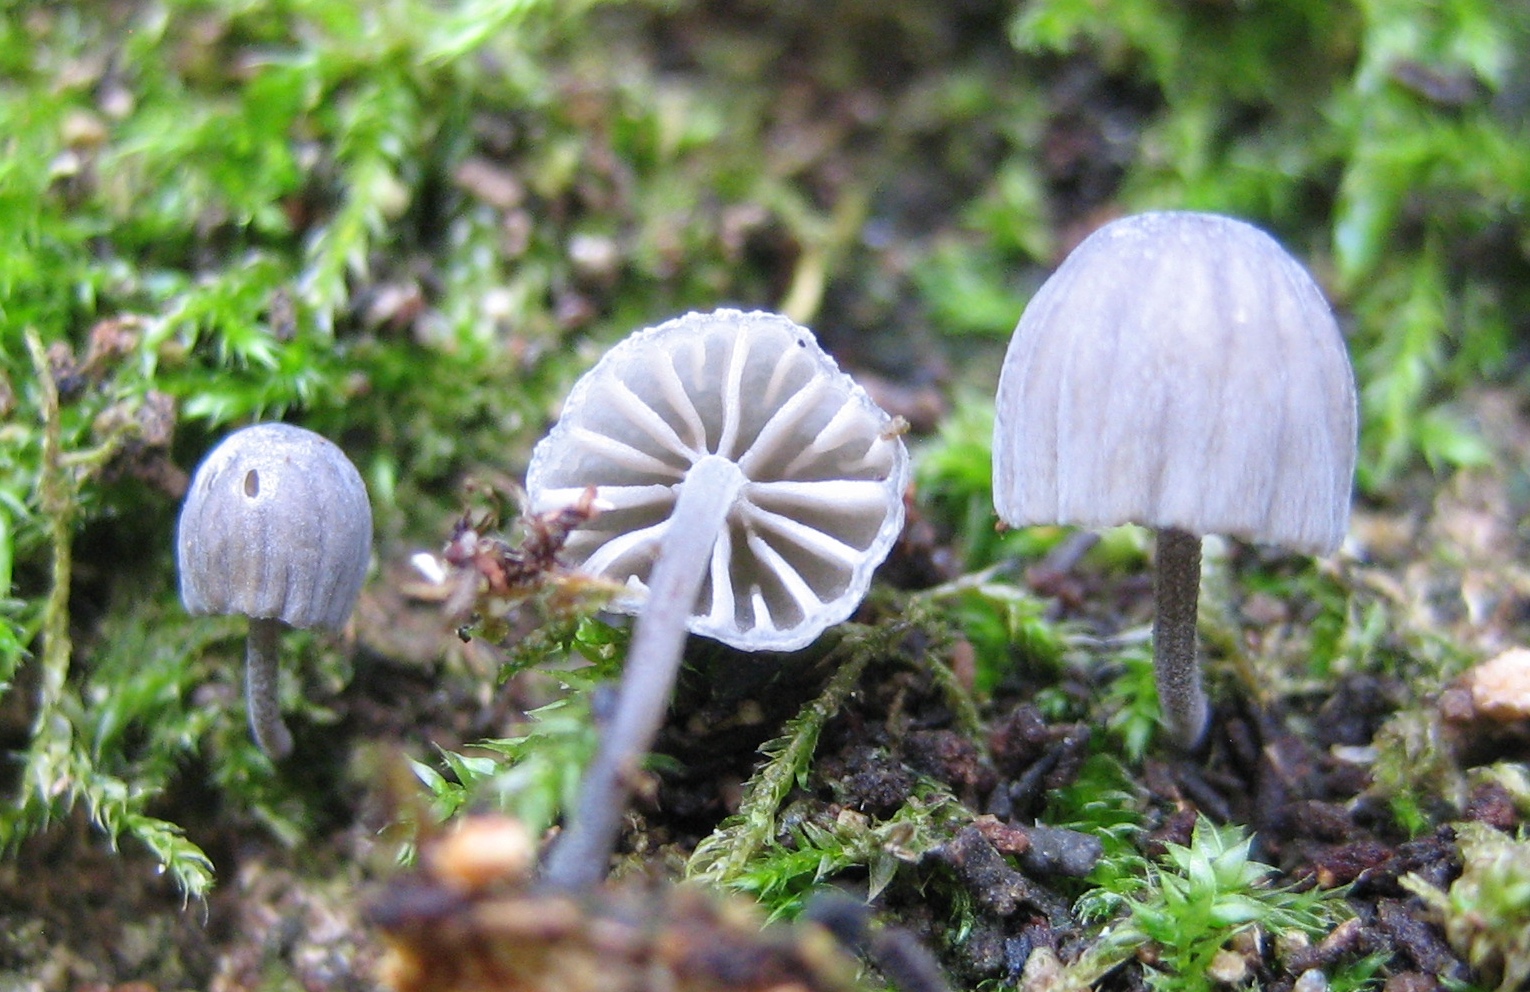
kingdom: Fungi
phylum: Basidiomycota
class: Agaricomycetes
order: Agaricales
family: Mycenaceae
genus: Mycena
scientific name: Mycena pseudocorticola
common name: gråblå bark-huesvamp
